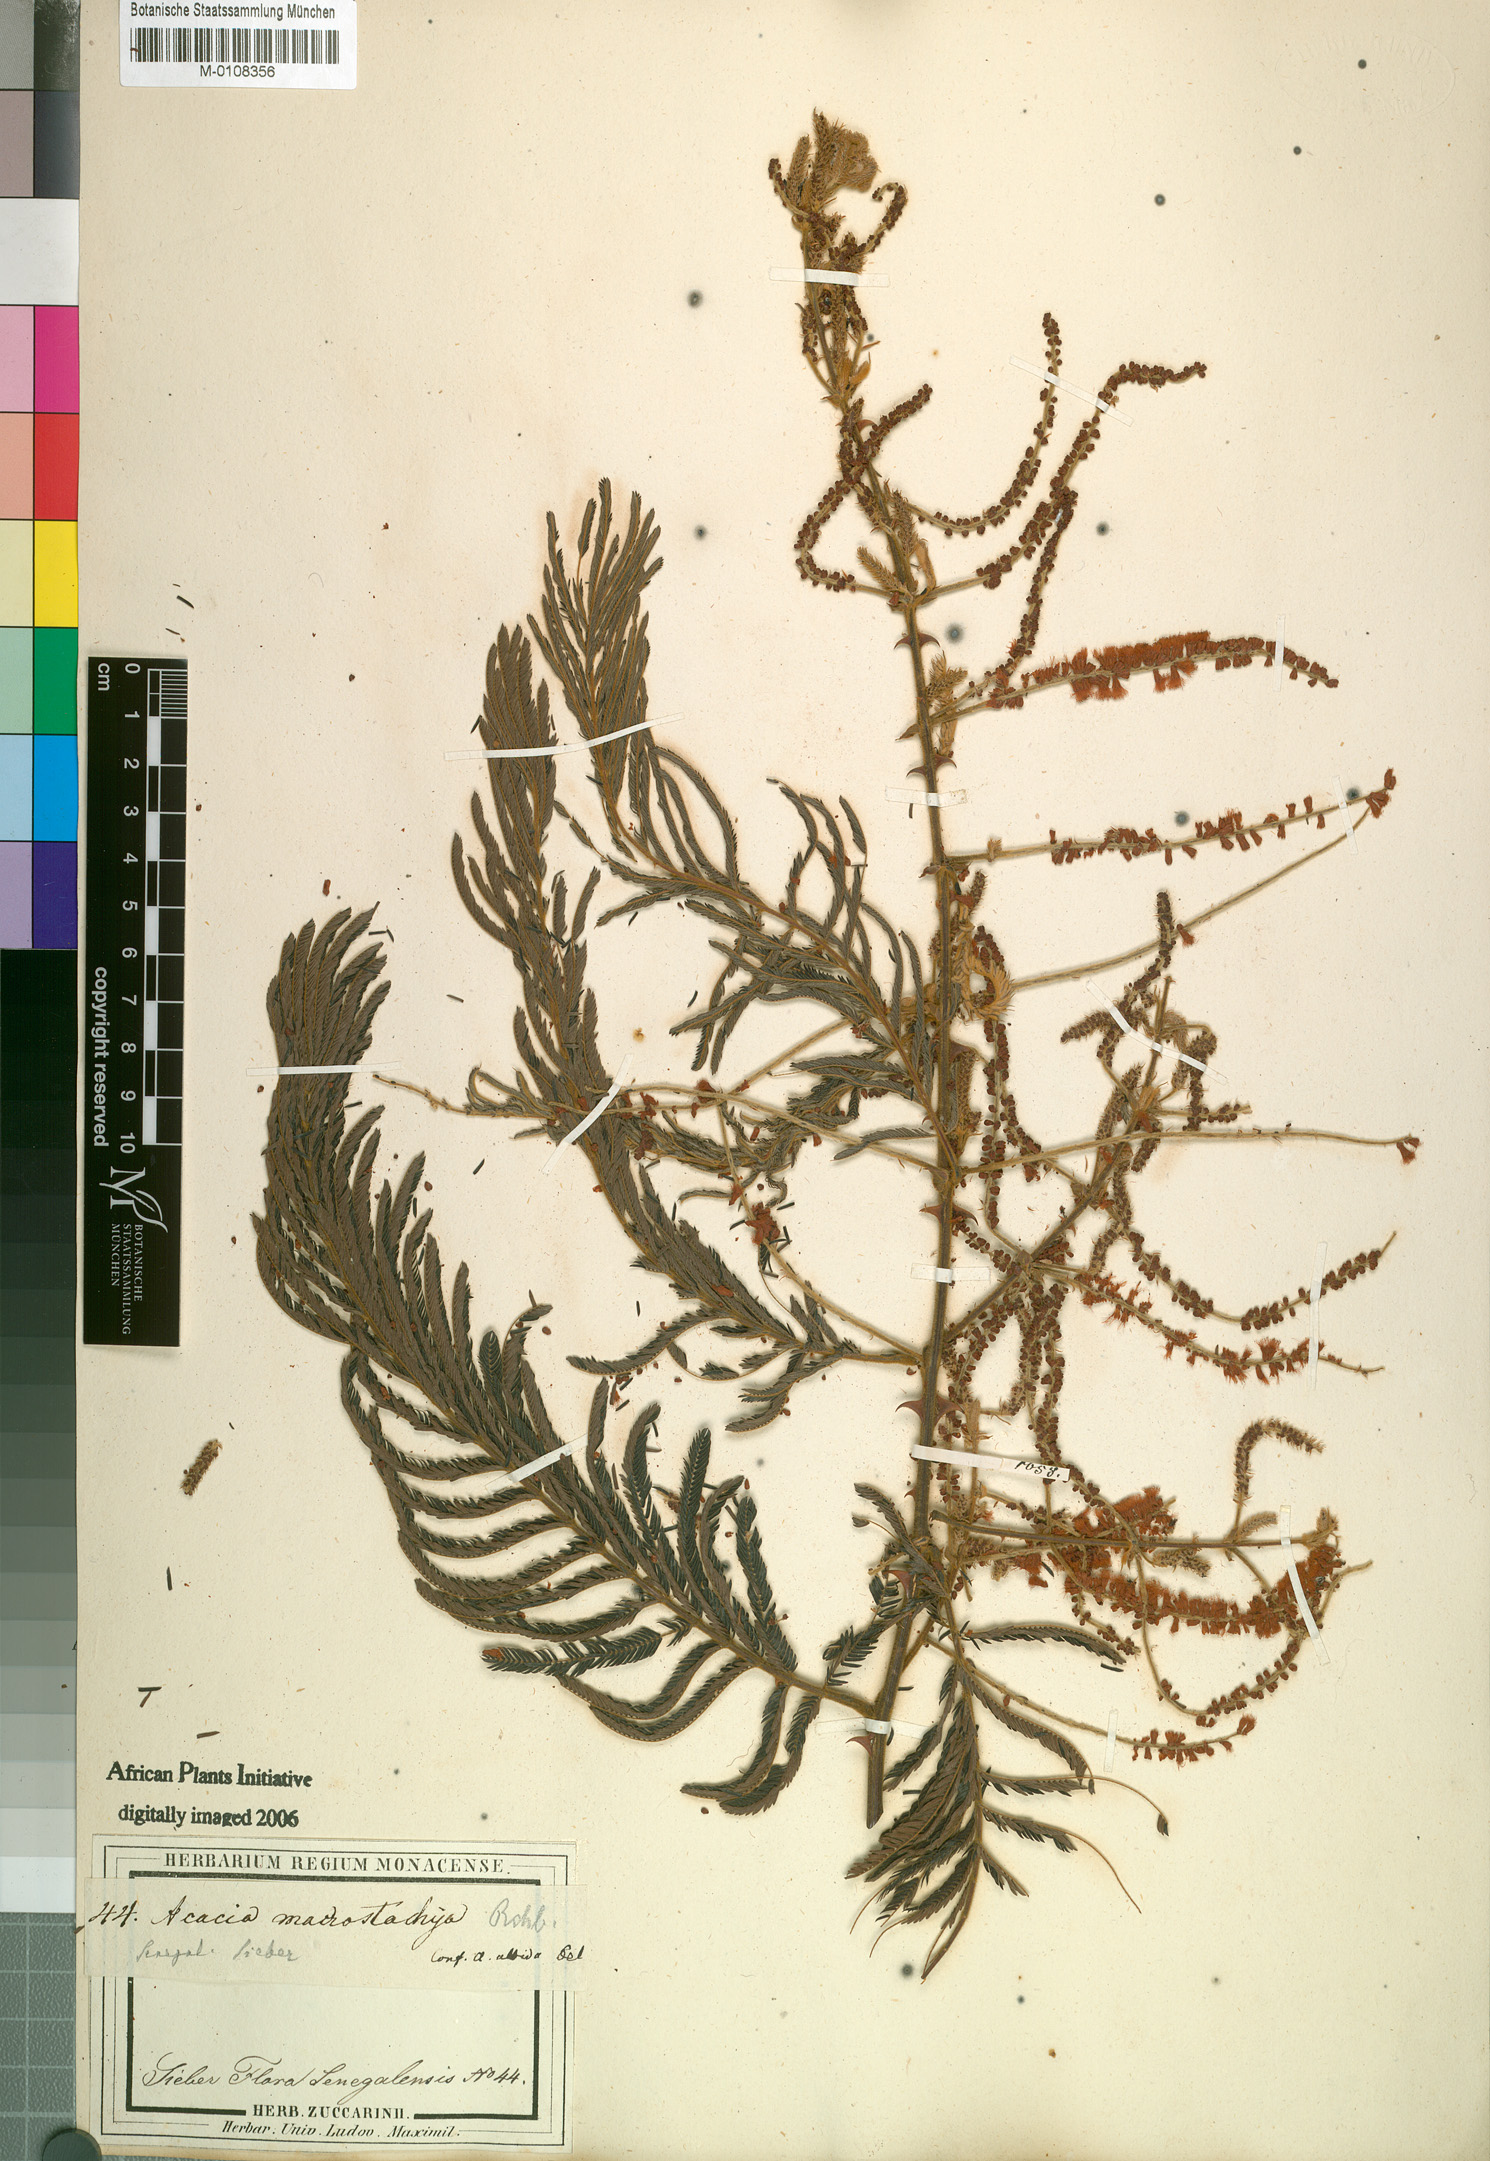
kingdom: Plantae
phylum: Tracheophyta
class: Magnoliopsida
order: Fabales
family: Fabaceae
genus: Senegalia
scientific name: Senegalia macrostachya
